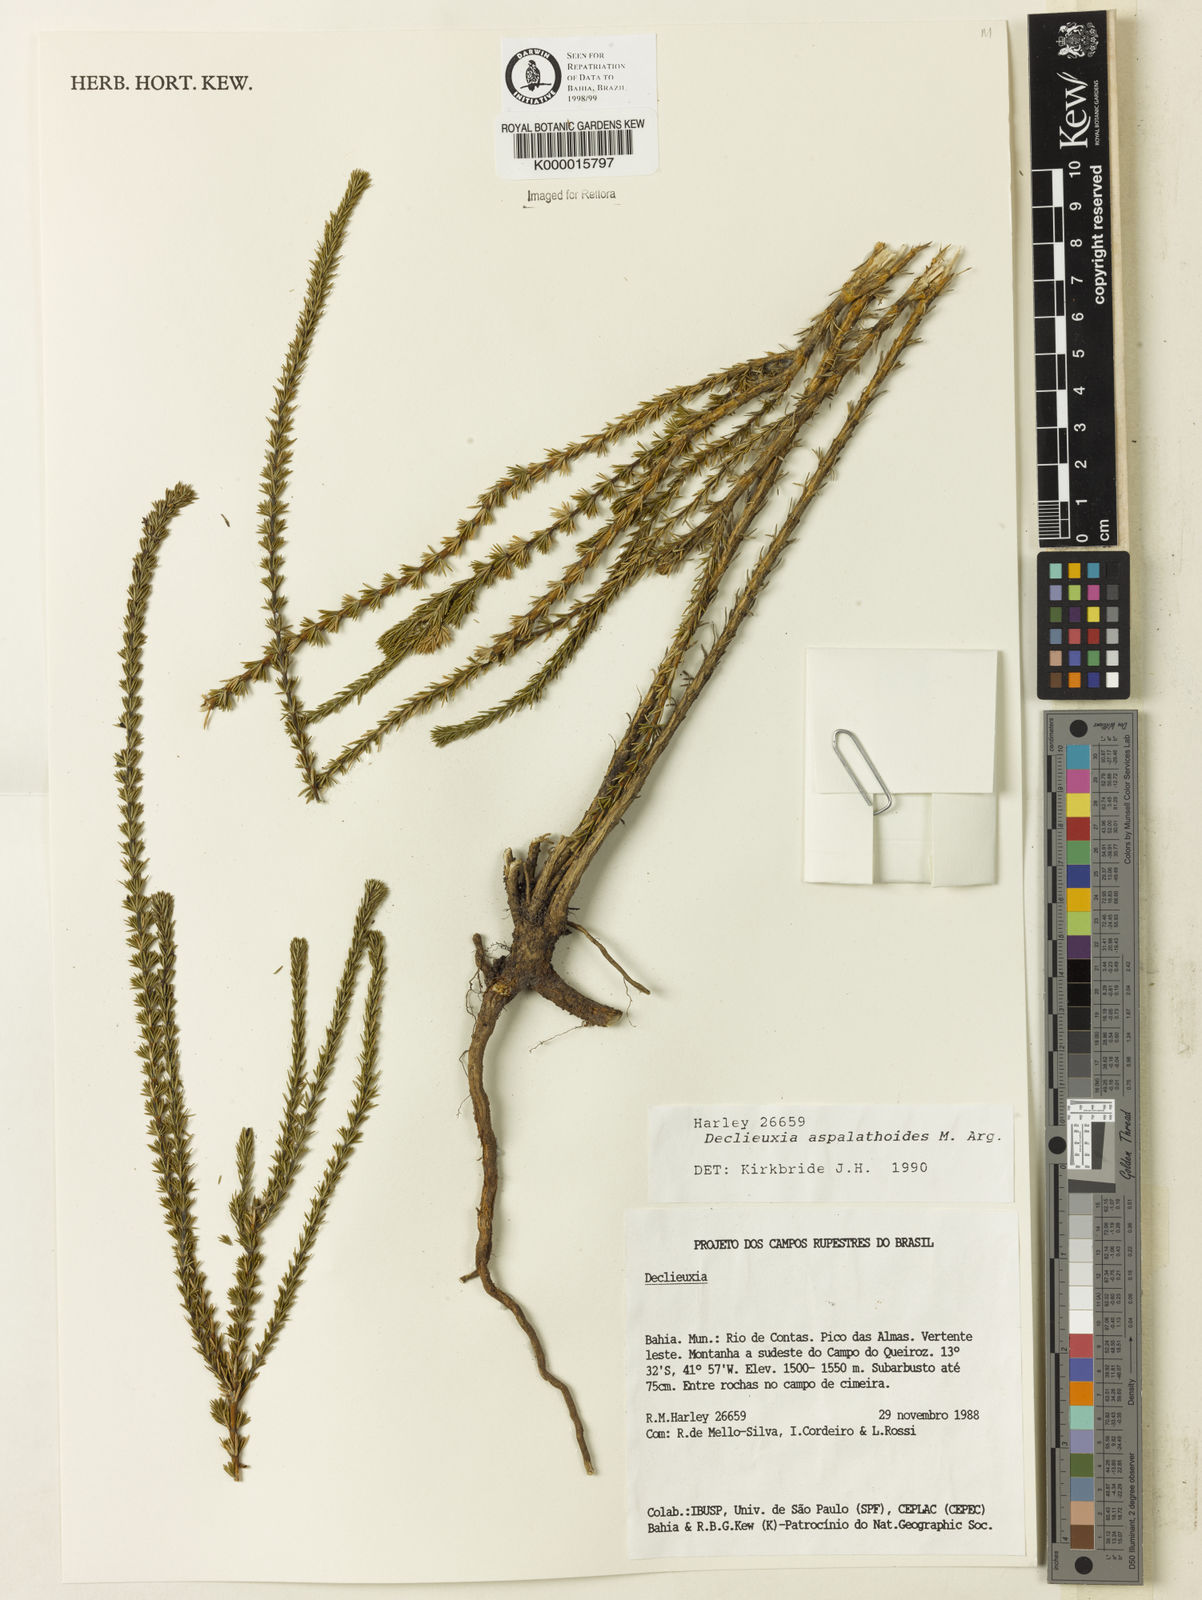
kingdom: Plantae
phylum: Tracheophyta
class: Magnoliopsida
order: Gentianales
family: Rubiaceae
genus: Declieuxia
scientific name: Declieuxia aspalathoides
